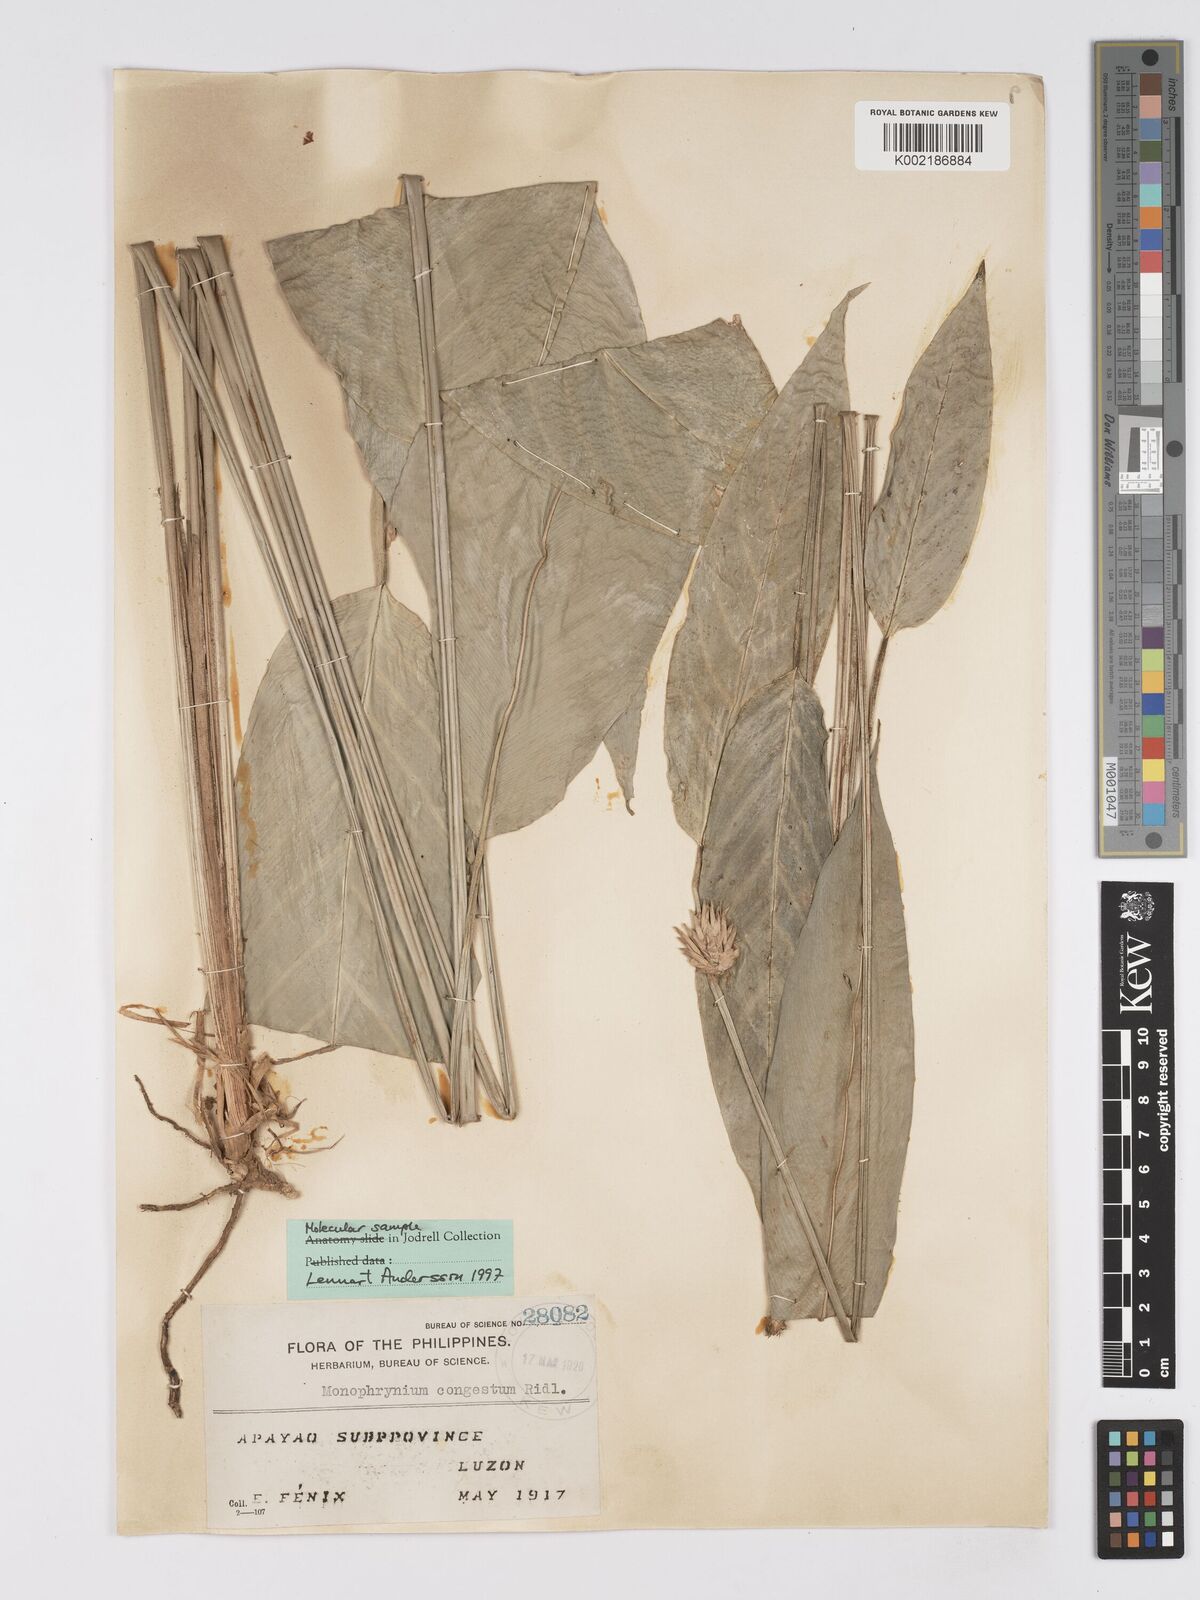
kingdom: Plantae
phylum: Tracheophyta
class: Liliopsida
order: Zingiberales
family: Marantaceae
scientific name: Marantaceae
